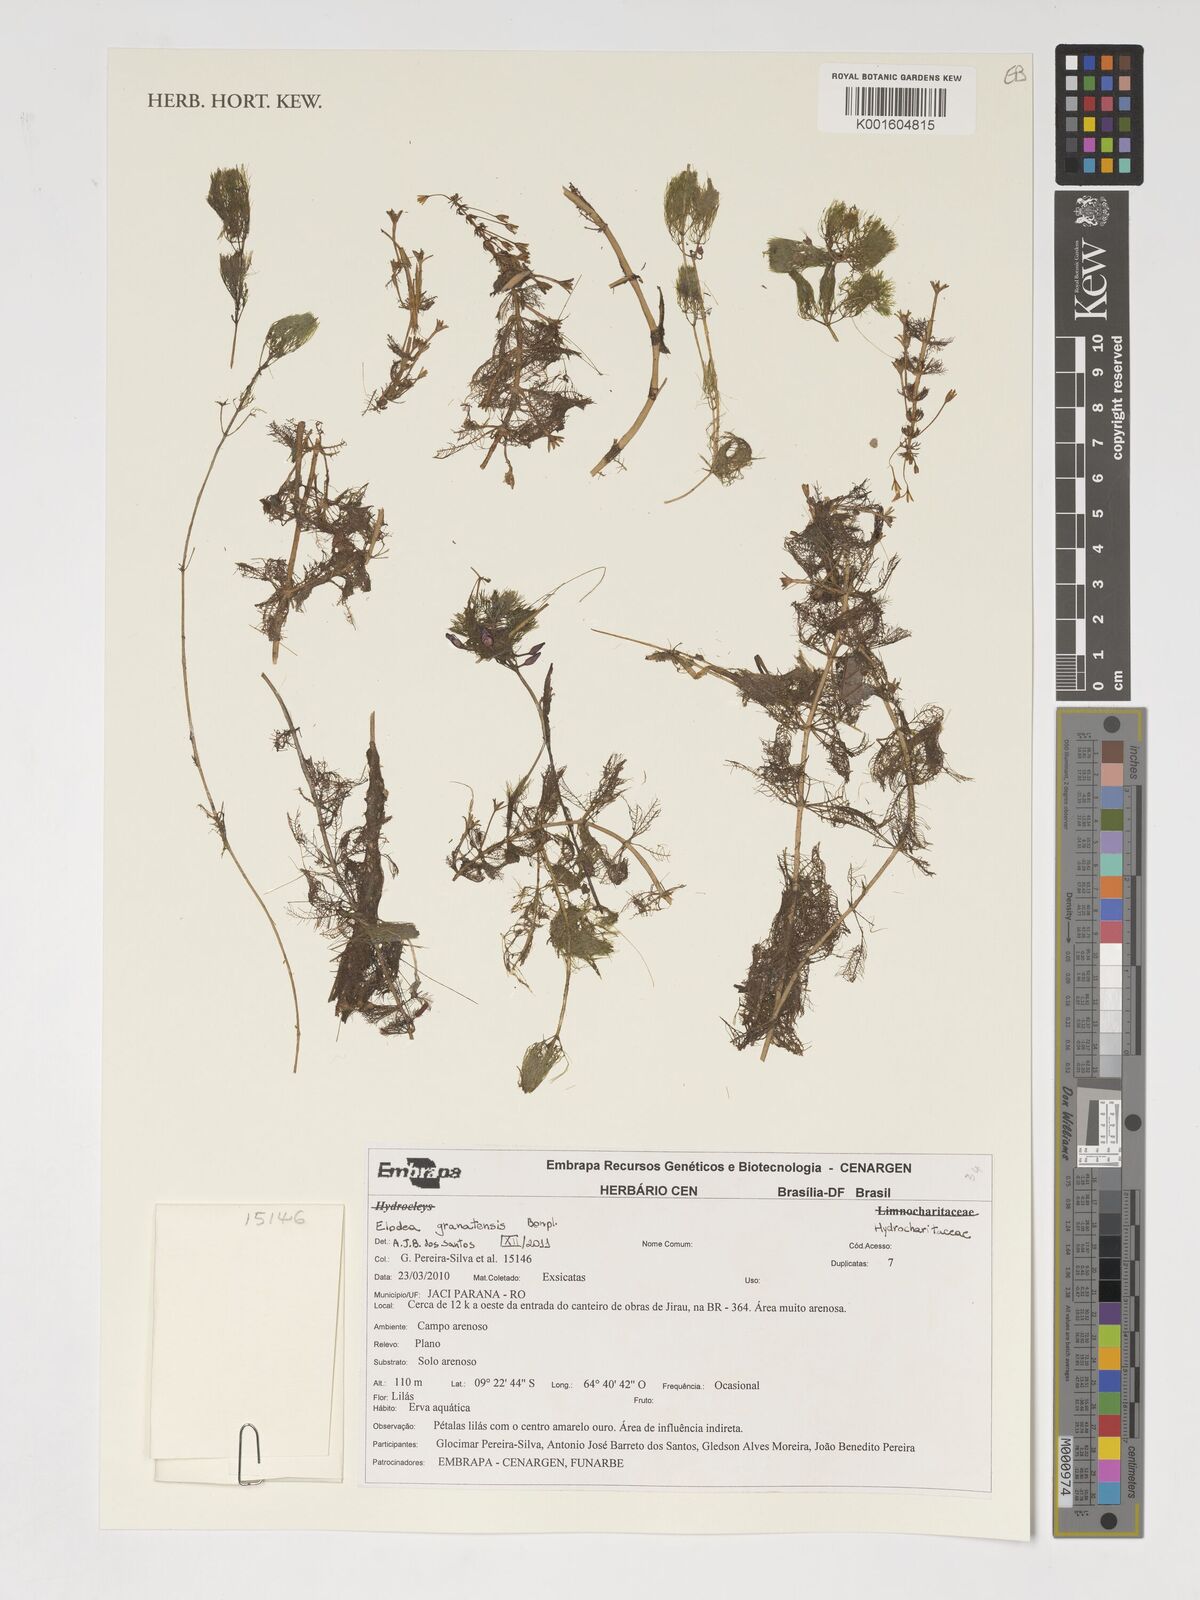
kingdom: Plantae
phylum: Tracheophyta
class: Liliopsida
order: Alismatales
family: Hydrocharitaceae
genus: Elodea
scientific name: Elodea granatensis
